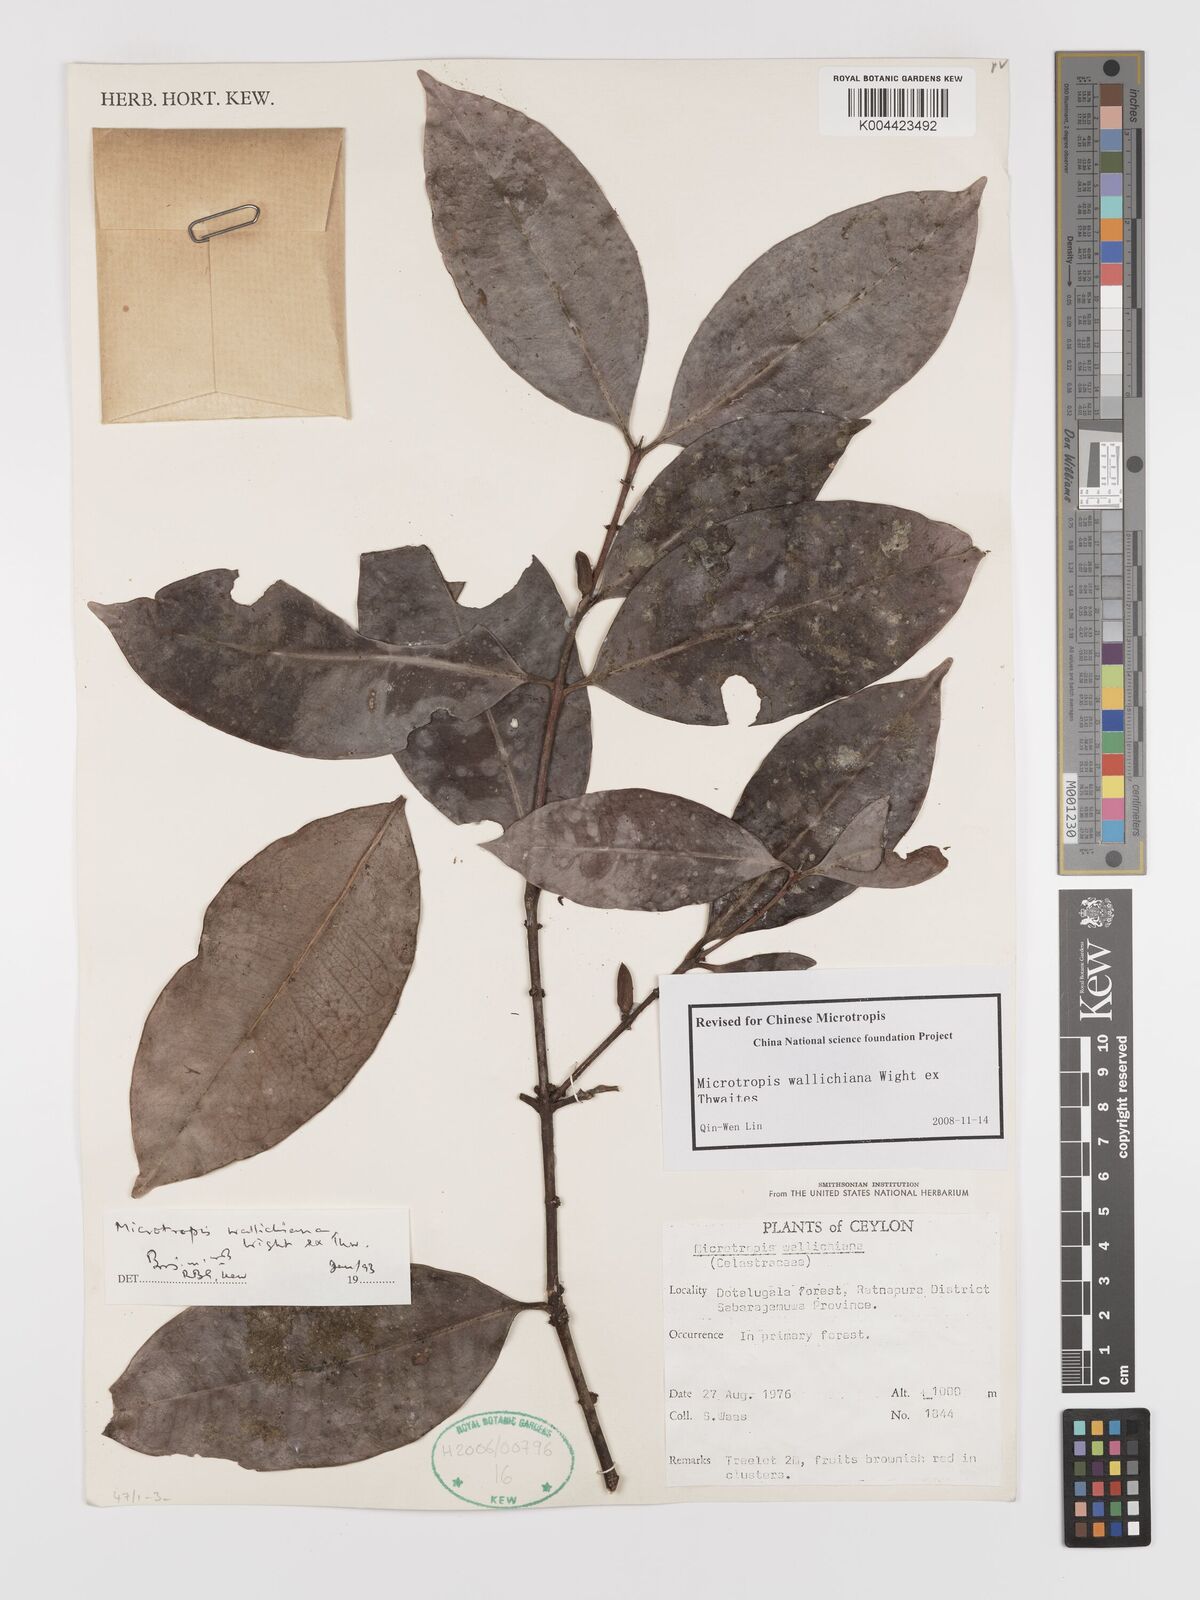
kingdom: Plantae
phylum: Tracheophyta
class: Magnoliopsida
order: Celastrales
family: Celastraceae
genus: Microtropis
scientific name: Microtropis wallichiana
